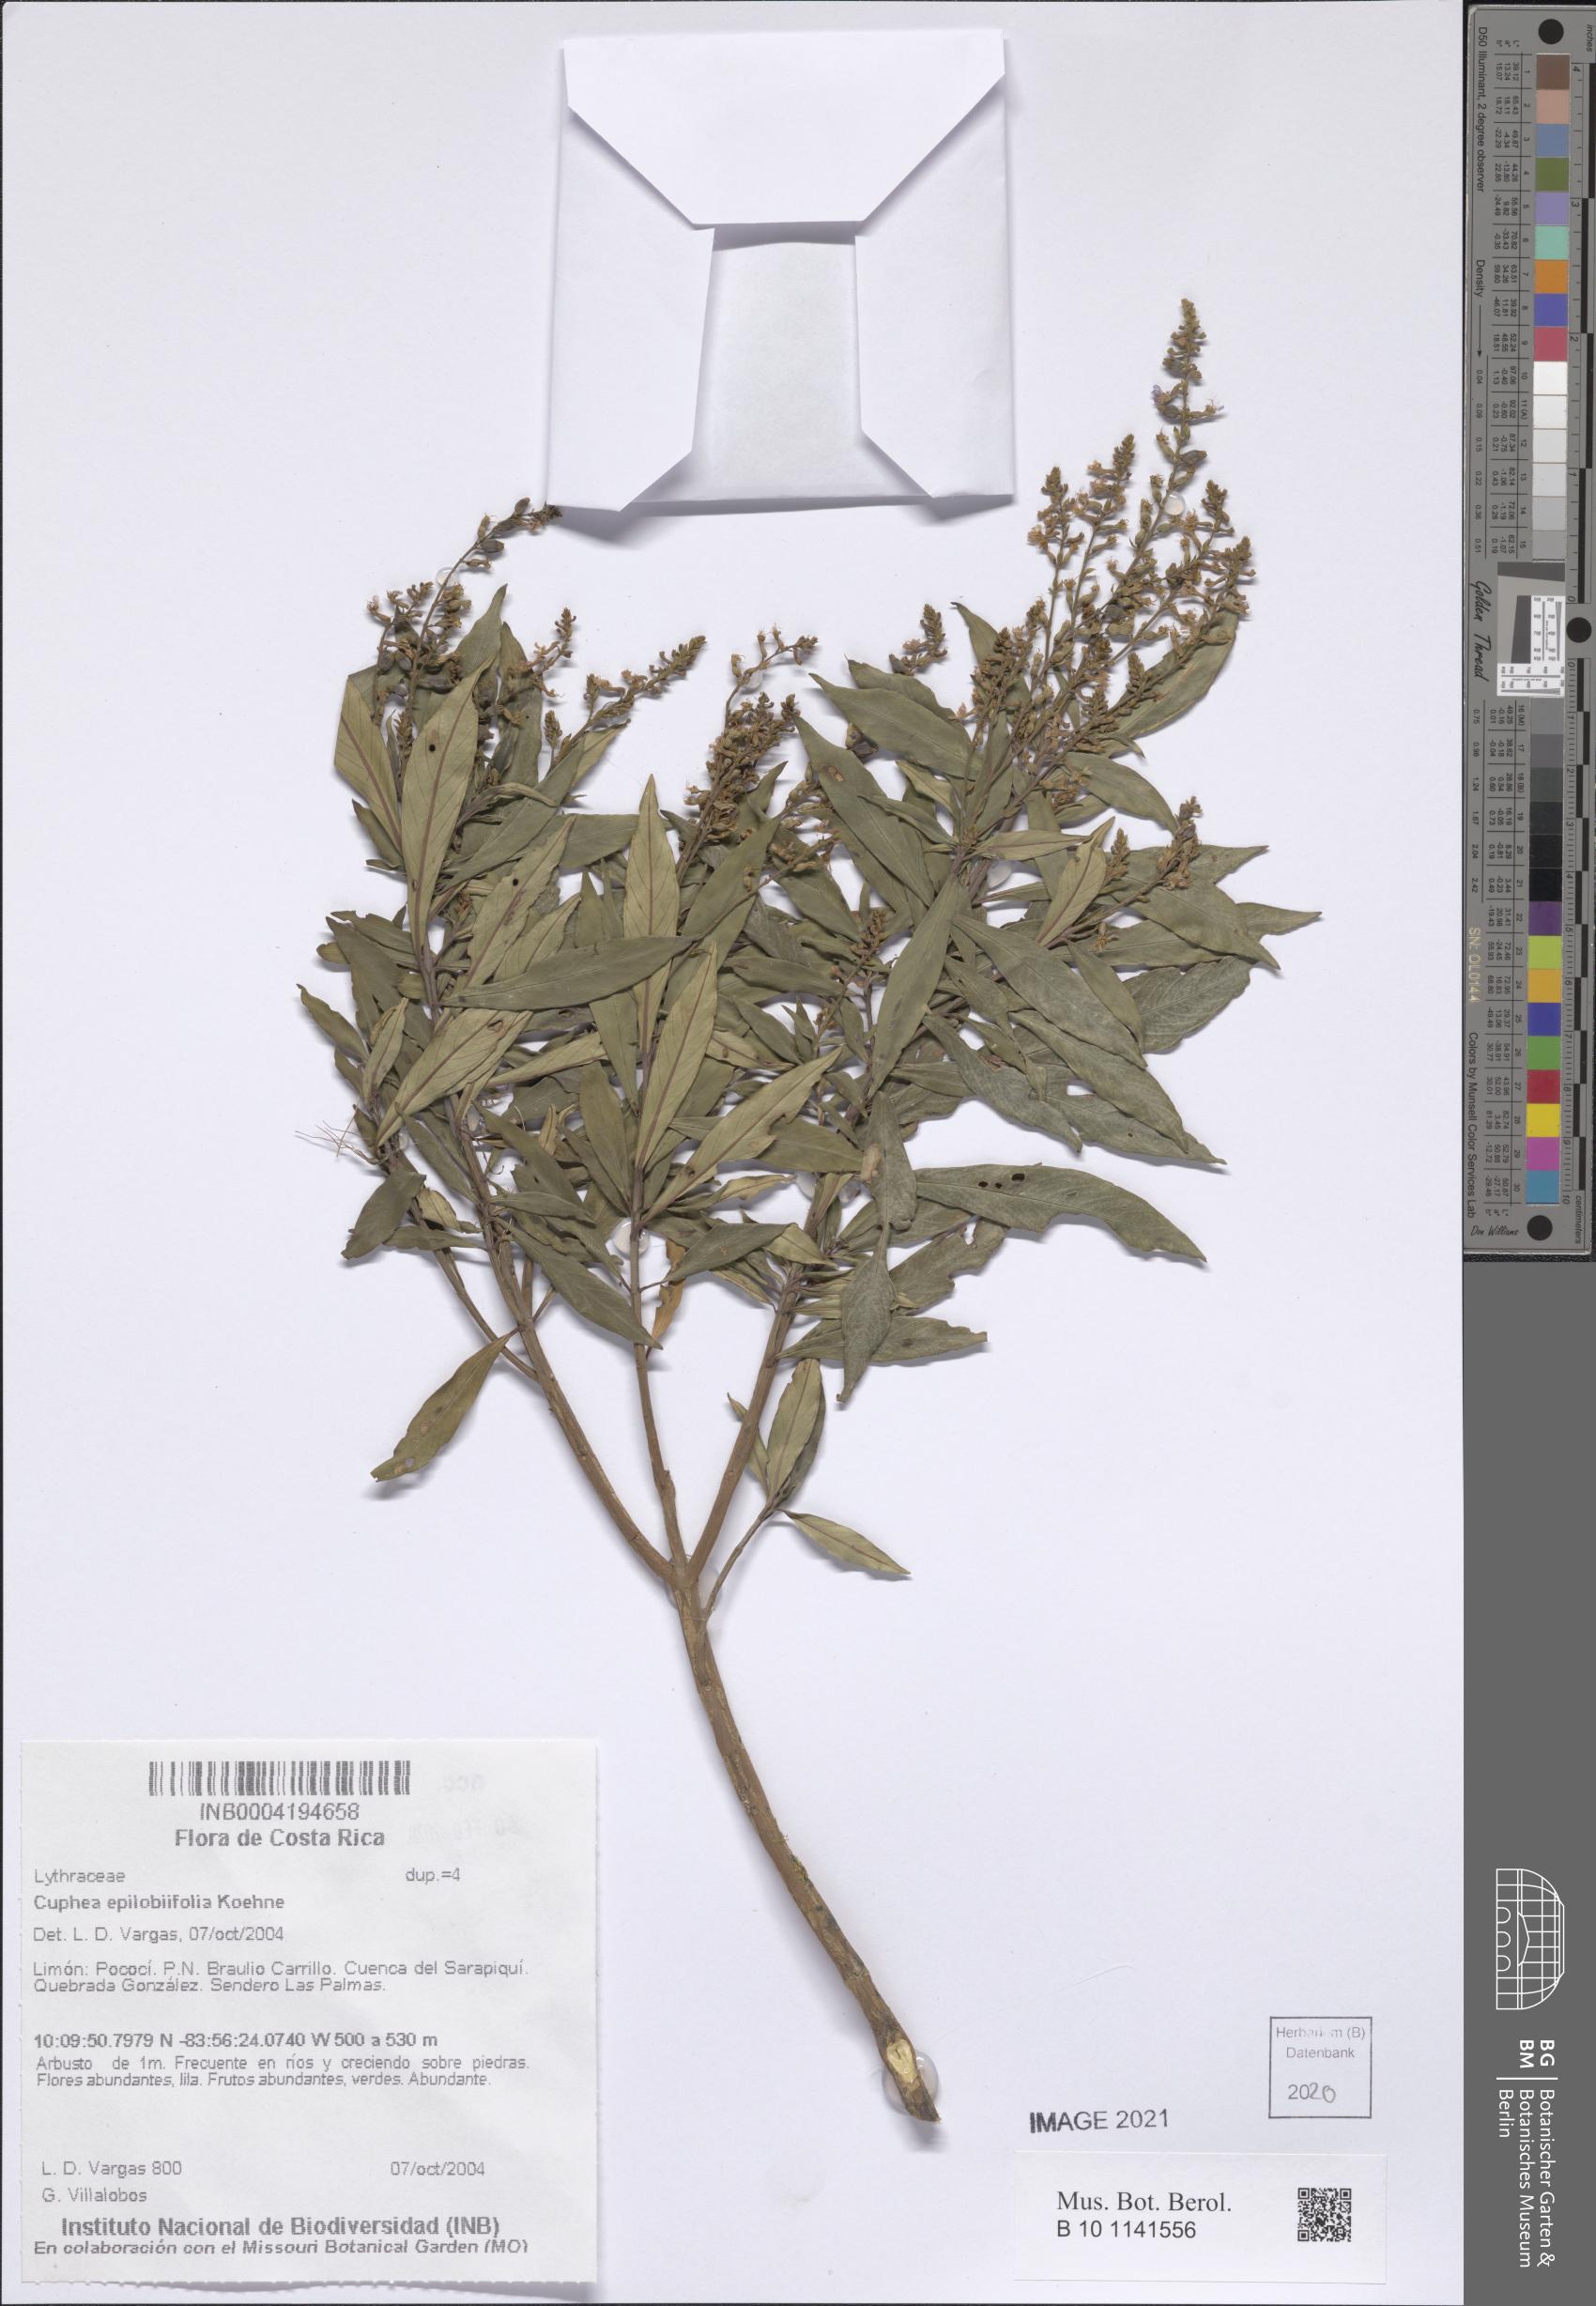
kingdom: Plantae
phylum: Tracheophyta
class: Magnoliopsida
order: Myrtales
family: Lythraceae
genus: Cuphea
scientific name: Cuphea epilobiifolia
